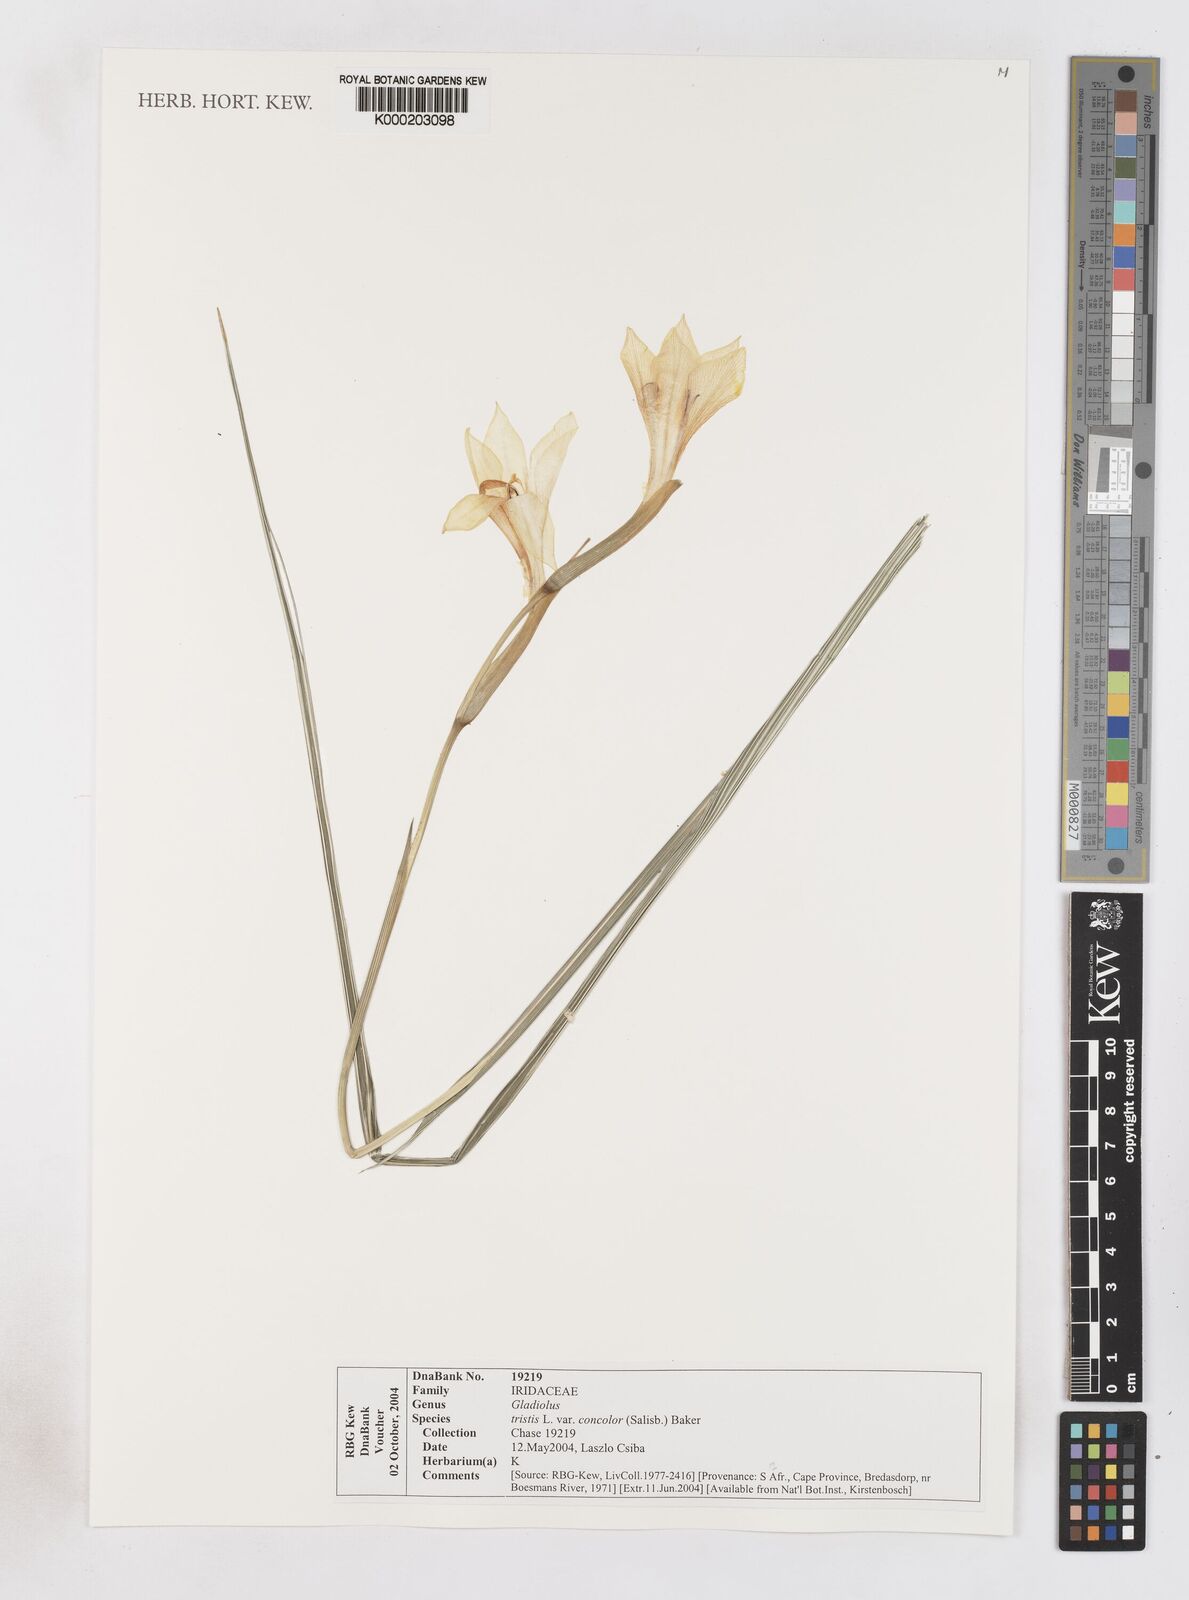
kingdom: Plantae
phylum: Tracheophyta
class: Liliopsida
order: Asparagales
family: Iridaceae
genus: Gladiolus
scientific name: Gladiolus tristis
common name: Ever-flowering gladiolus
